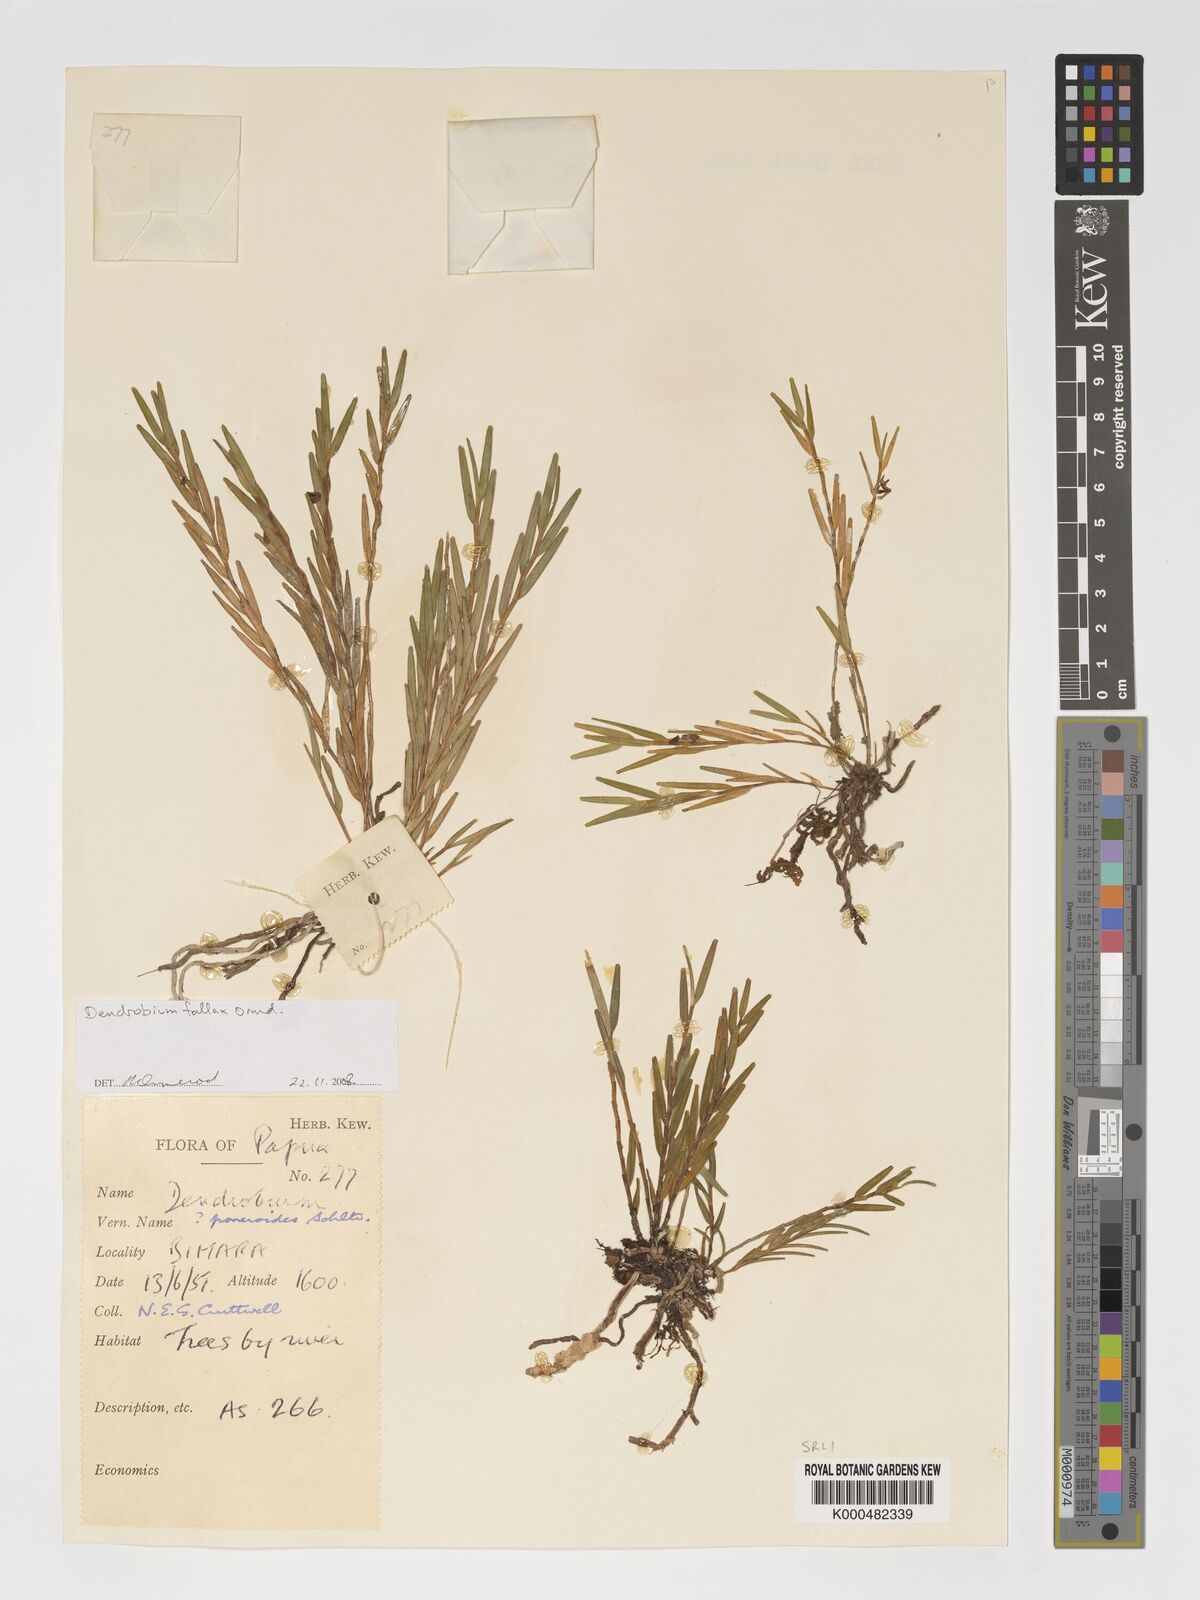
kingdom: Plantae
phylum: Tracheophyta
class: Liliopsida
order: Asparagales
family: Orchidaceae
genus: Dendrobium
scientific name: Dendrobium poneroides
